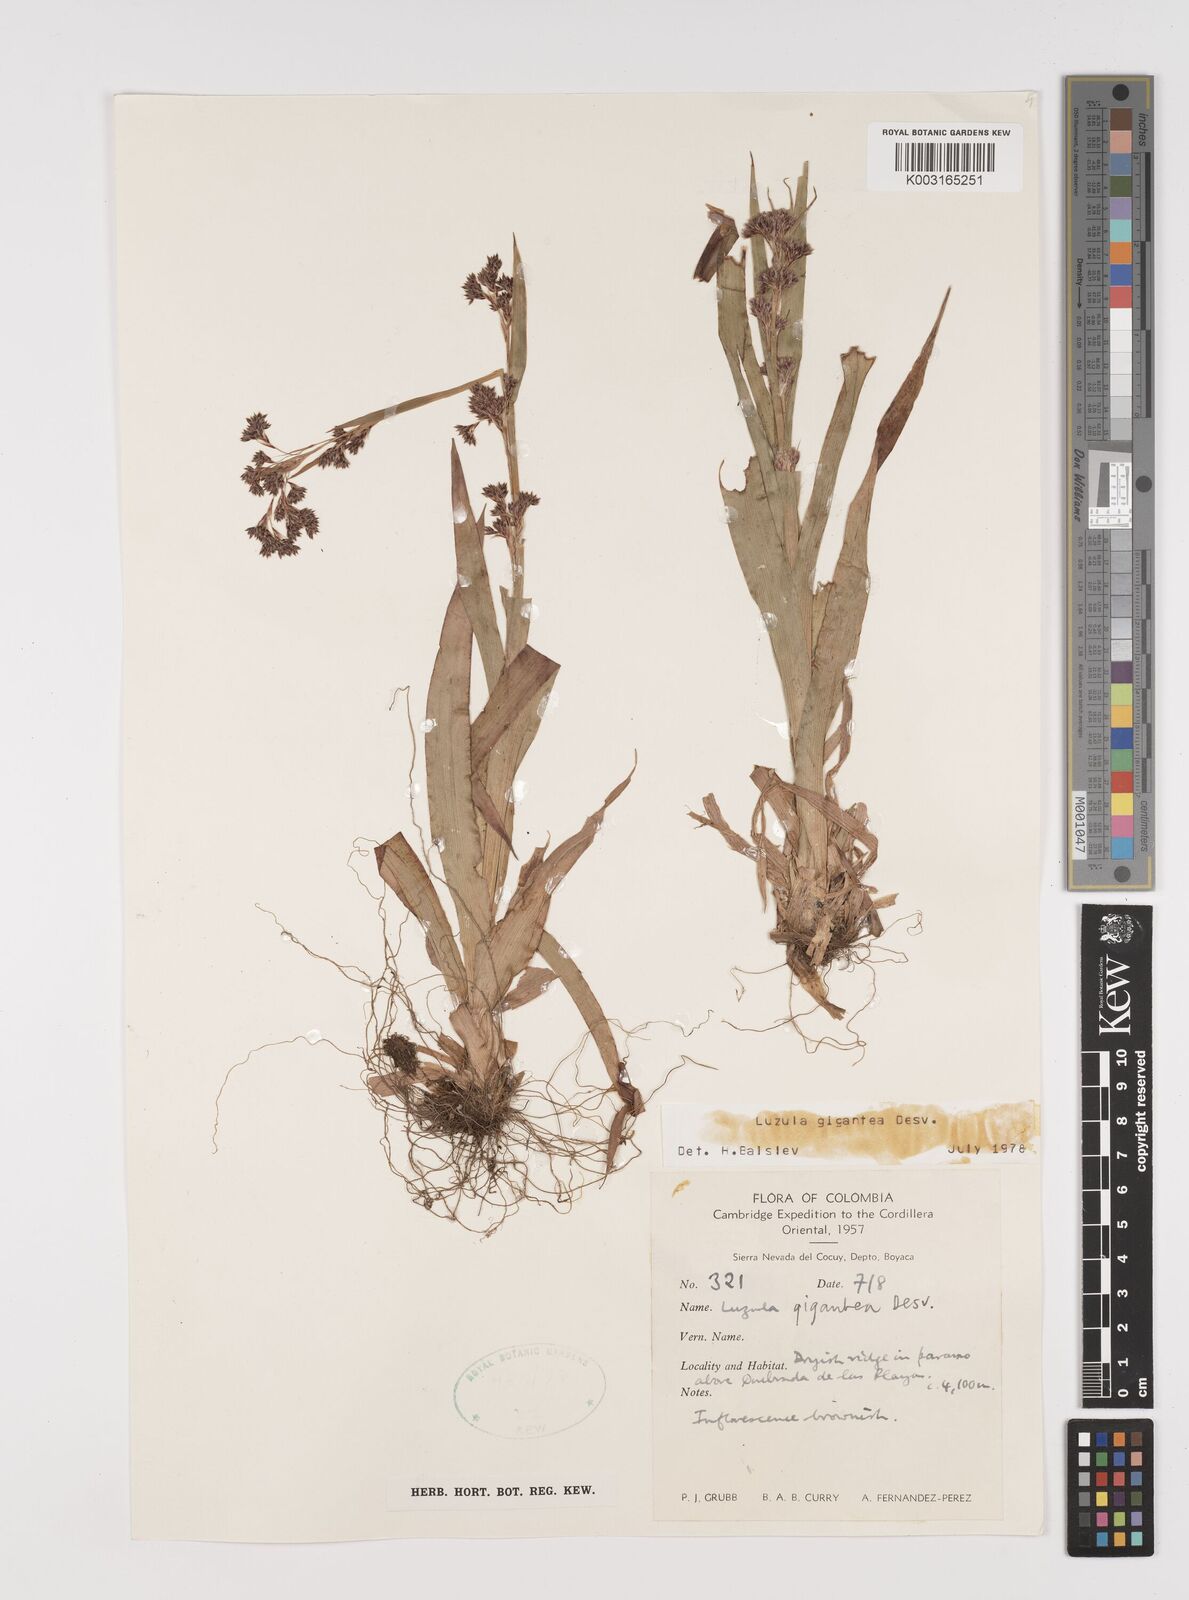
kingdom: Plantae
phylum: Tracheophyta
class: Liliopsida
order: Poales
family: Juncaceae
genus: Luzula
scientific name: Luzula gigantea
